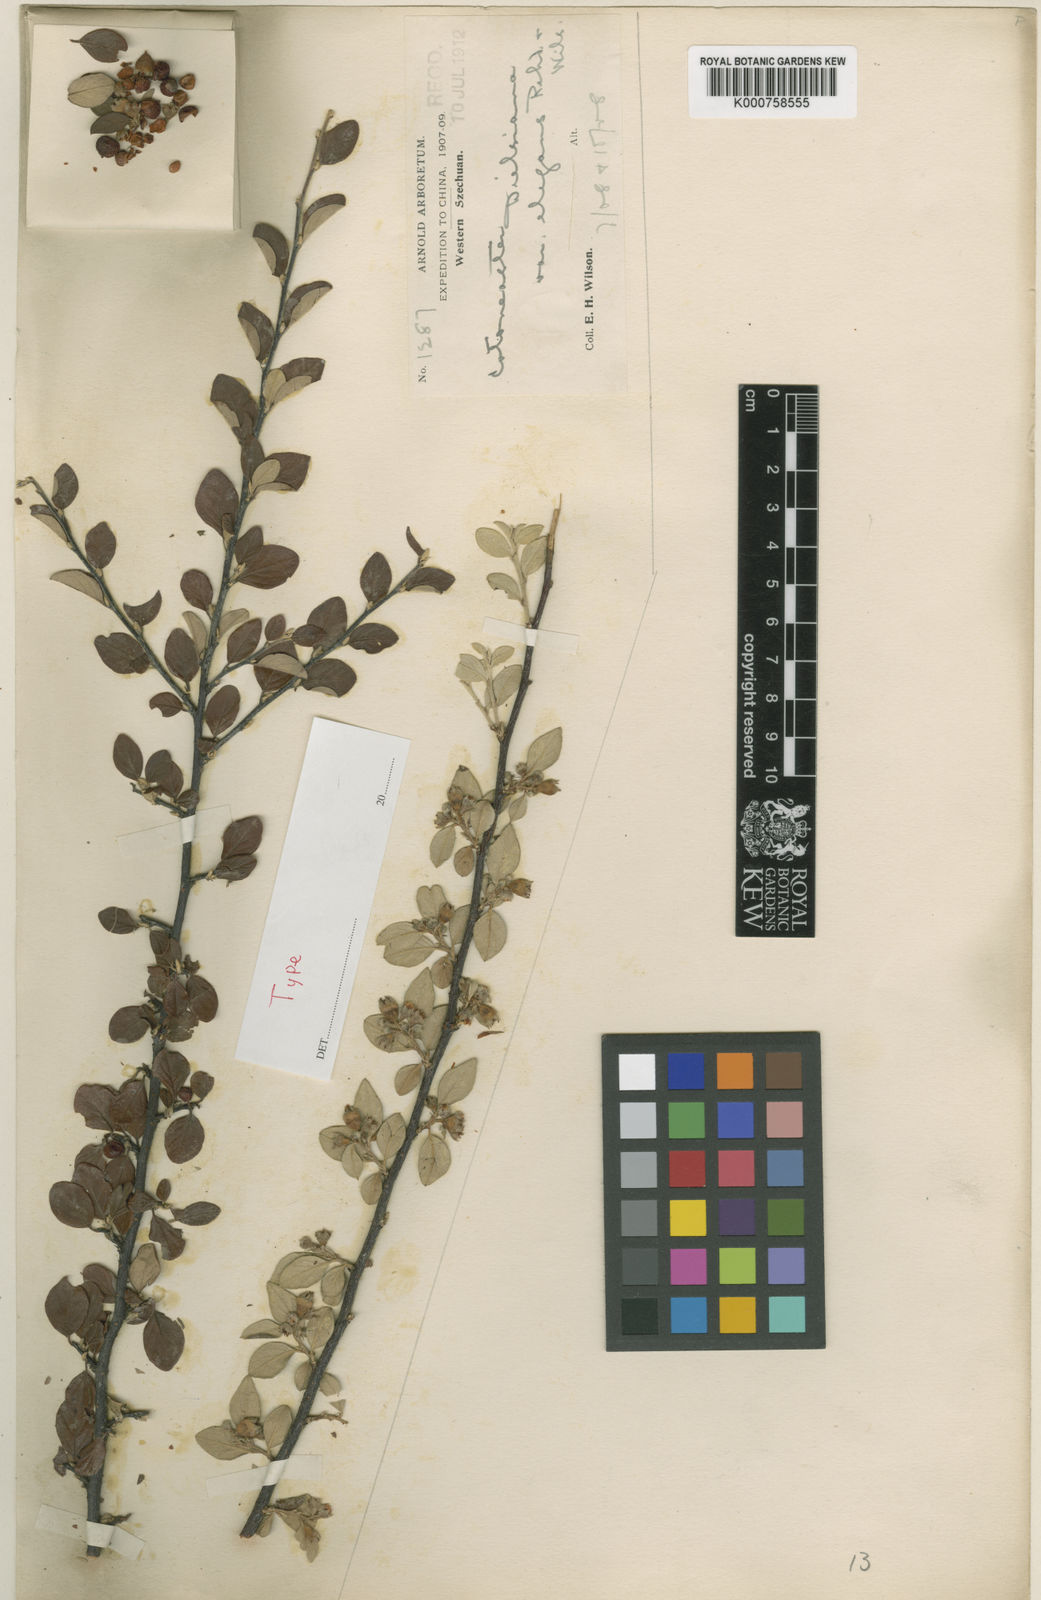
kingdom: Plantae
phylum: Tracheophyta
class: Magnoliopsida
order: Rosales
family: Rosaceae
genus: Cotoneaster
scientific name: Cotoneaster
